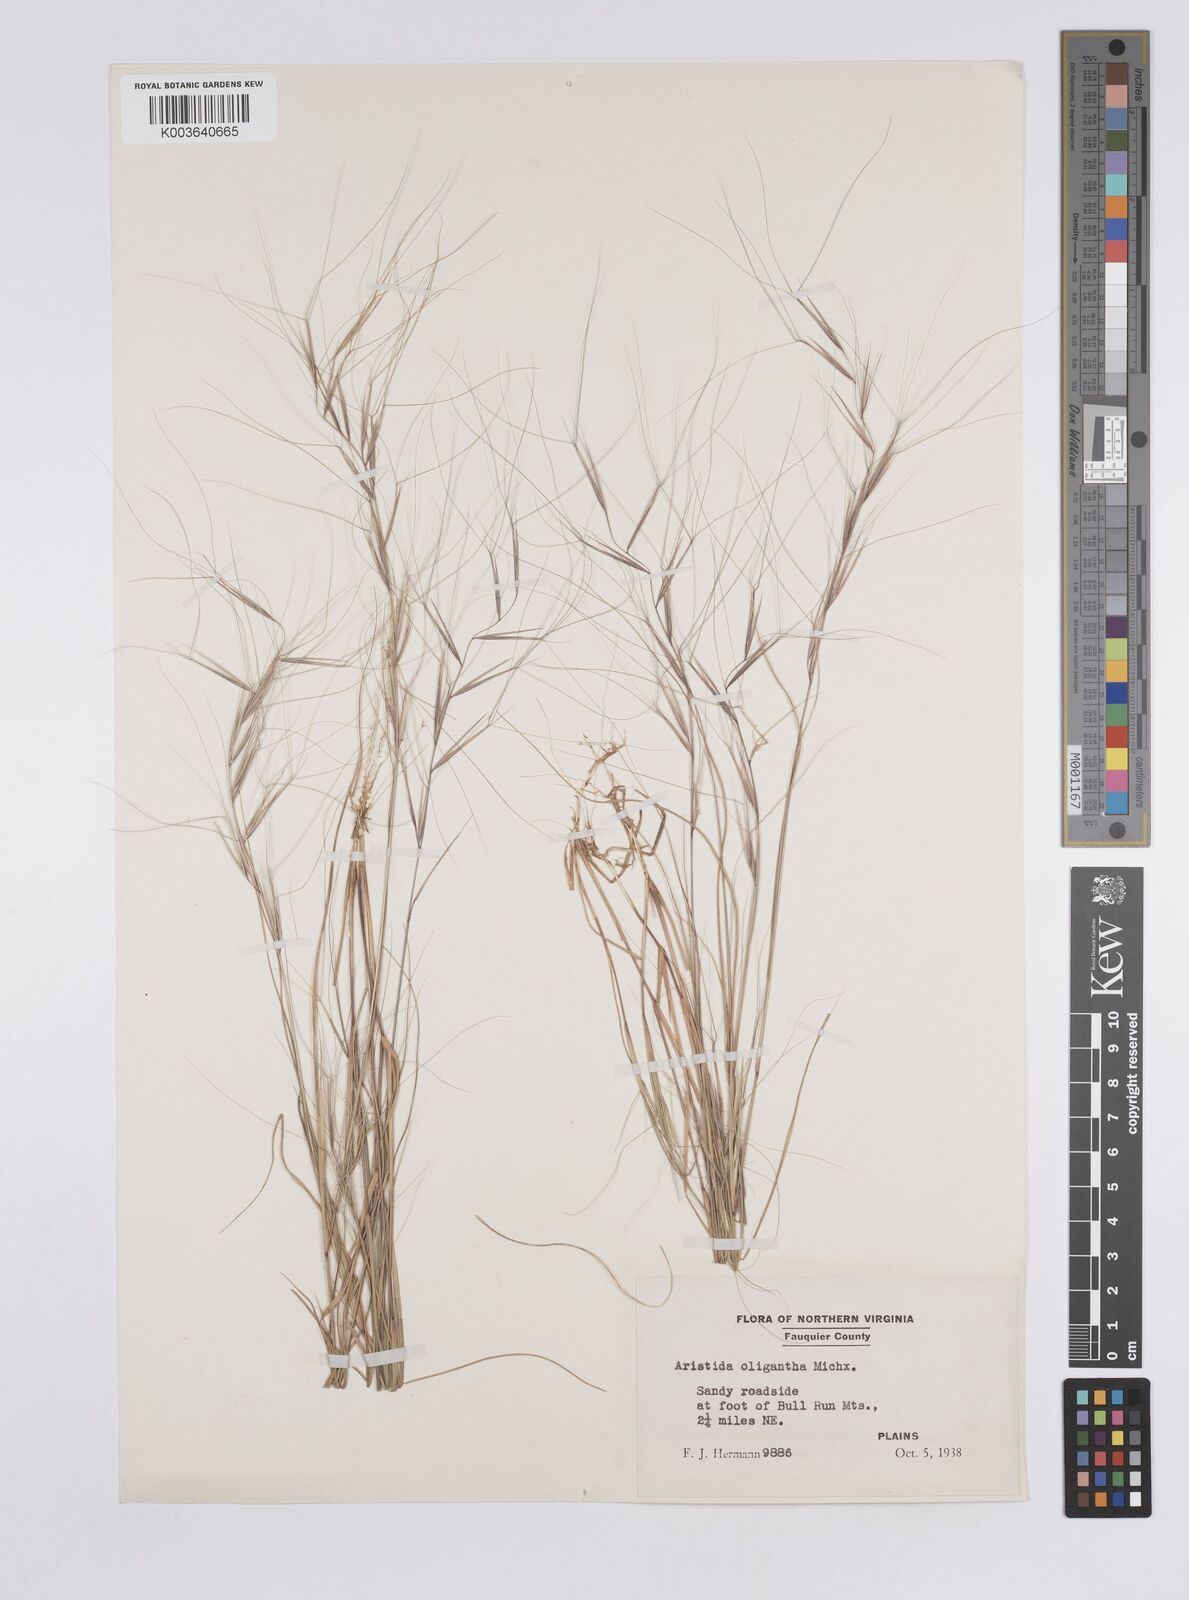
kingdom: Plantae
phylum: Tracheophyta
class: Liliopsida
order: Poales
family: Poaceae
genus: Aristida
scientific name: Aristida oligantha
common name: Few-flowered aristida
